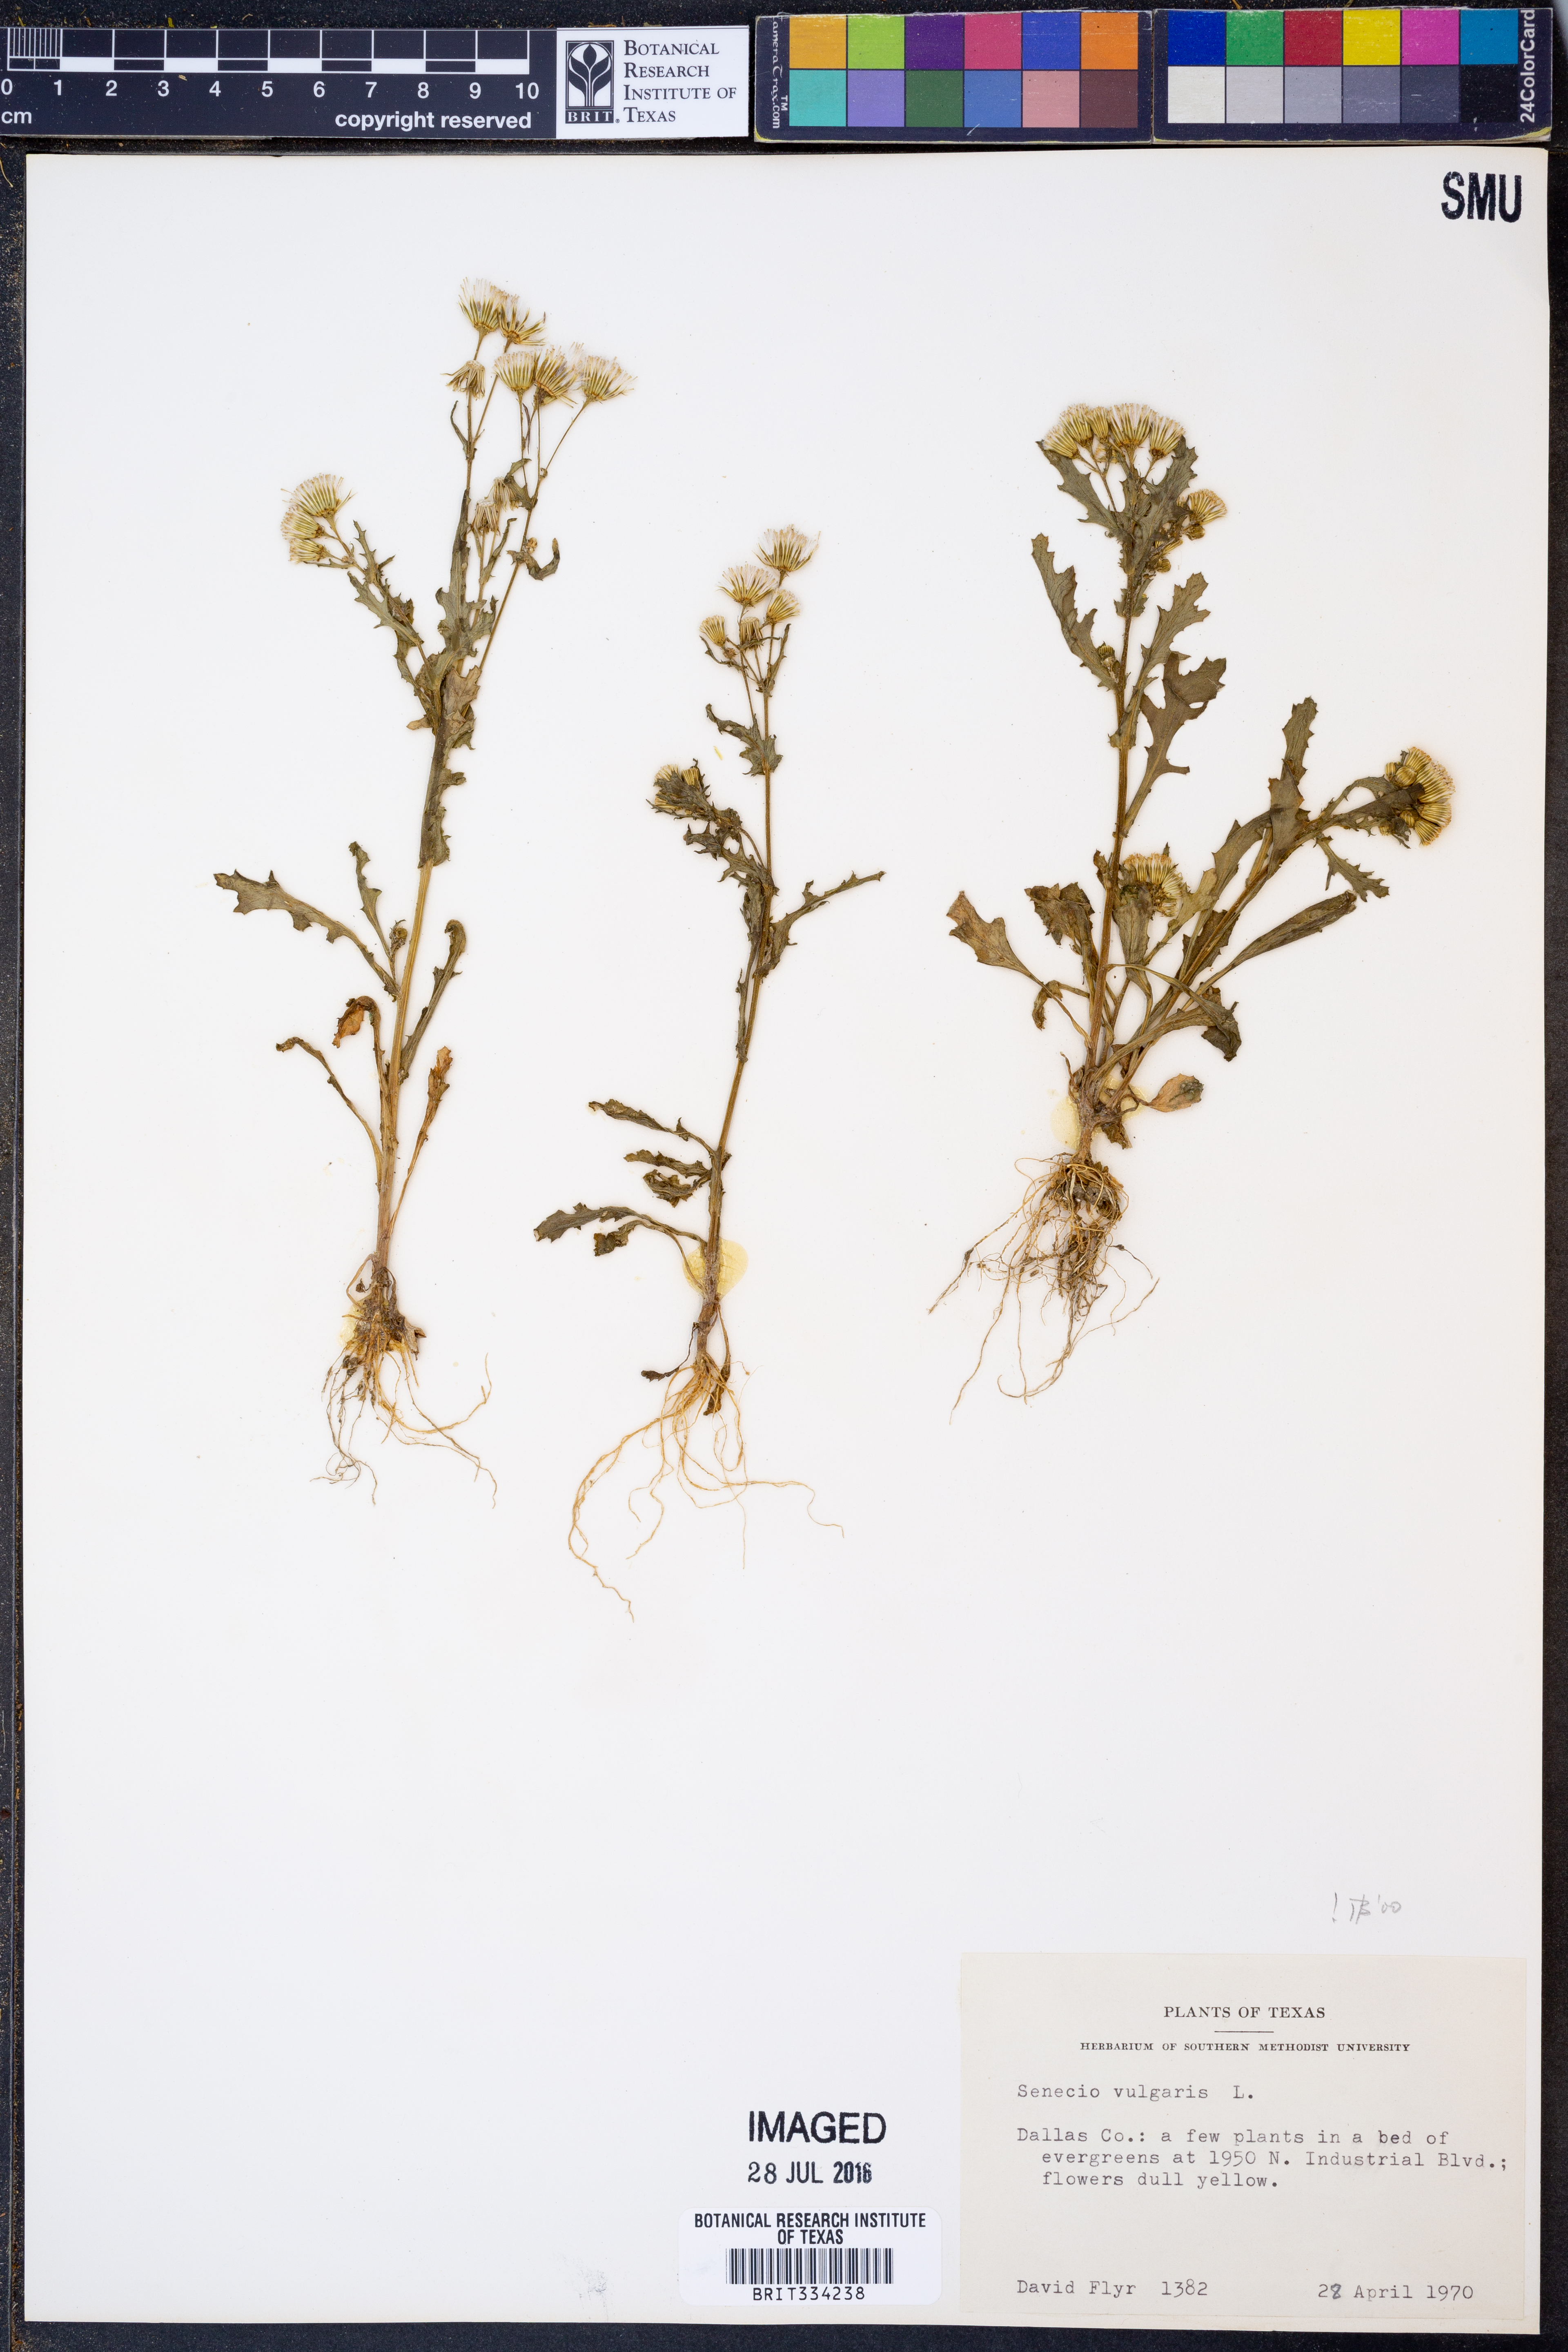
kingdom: Plantae
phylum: Tracheophyta
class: Magnoliopsida
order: Asterales
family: Asteraceae
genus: Senecio
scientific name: Senecio vulgaris
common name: Old-man-in-the-spring
